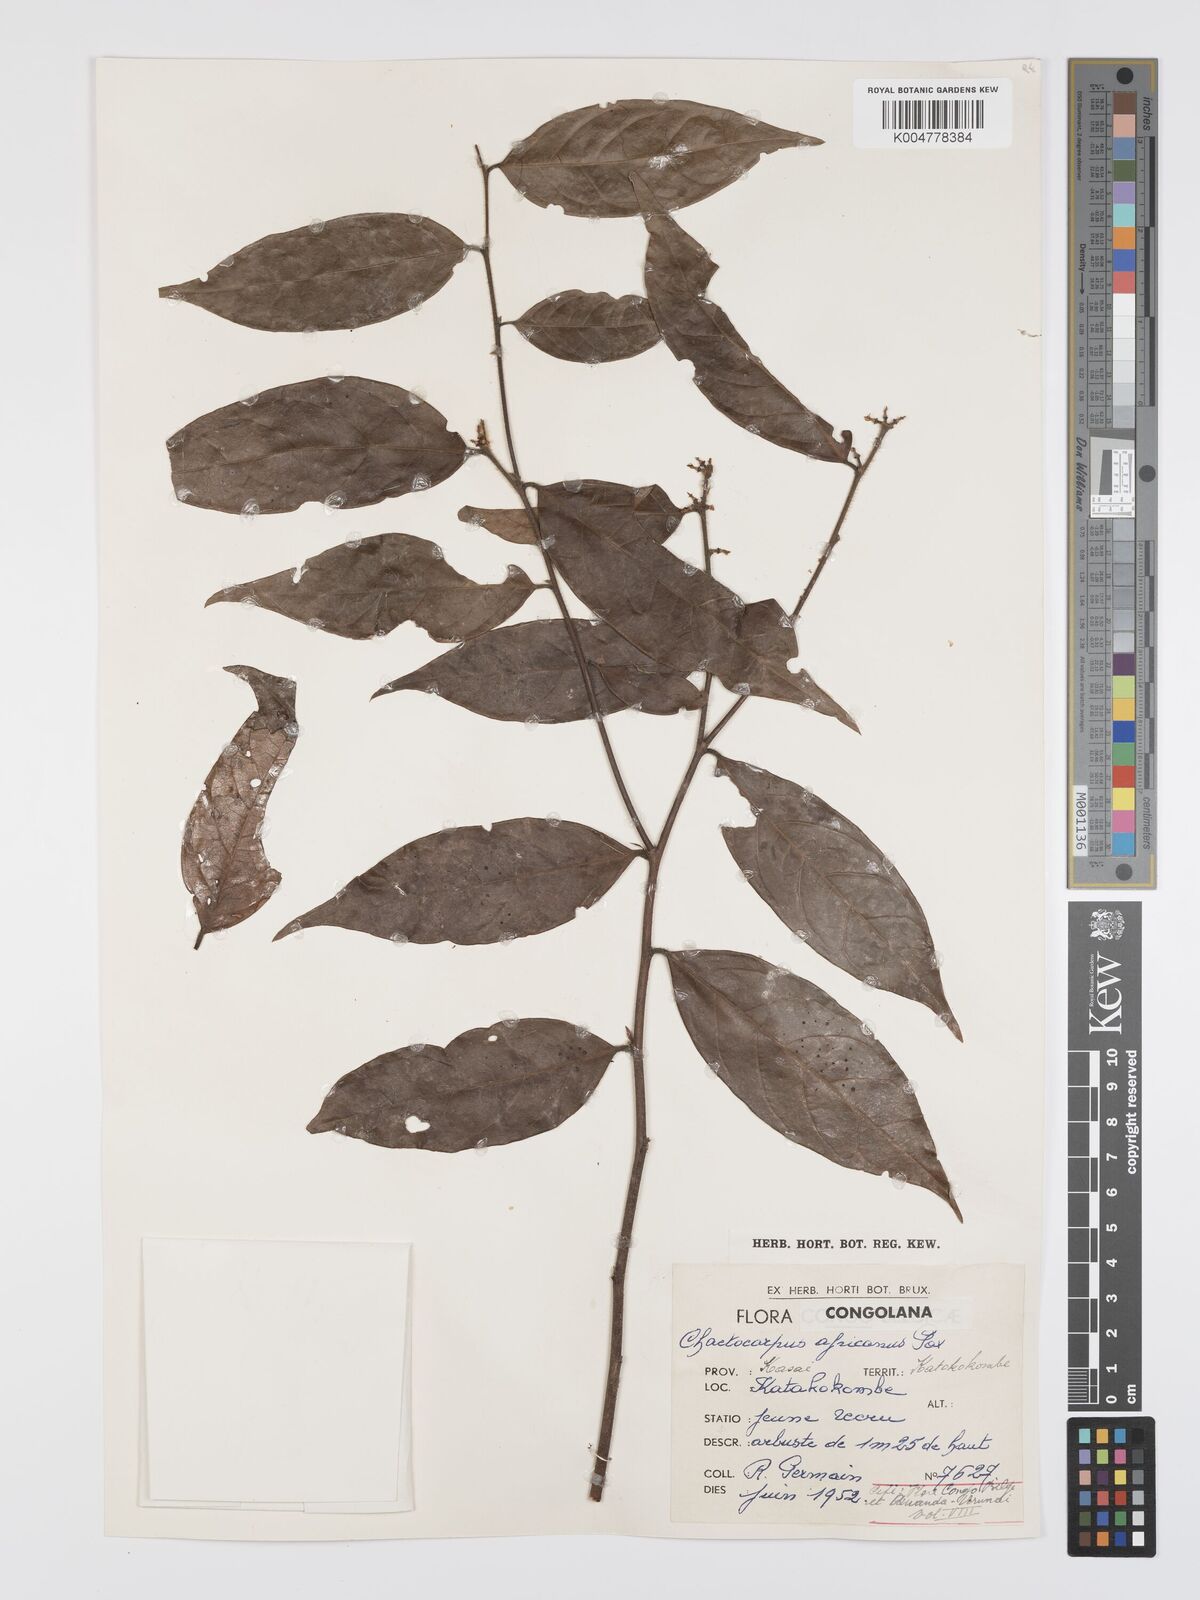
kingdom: Plantae
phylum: Tracheophyta
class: Magnoliopsida
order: Malpighiales
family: Peraceae
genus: Chaetocarpus
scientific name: Chaetocarpus africanus
